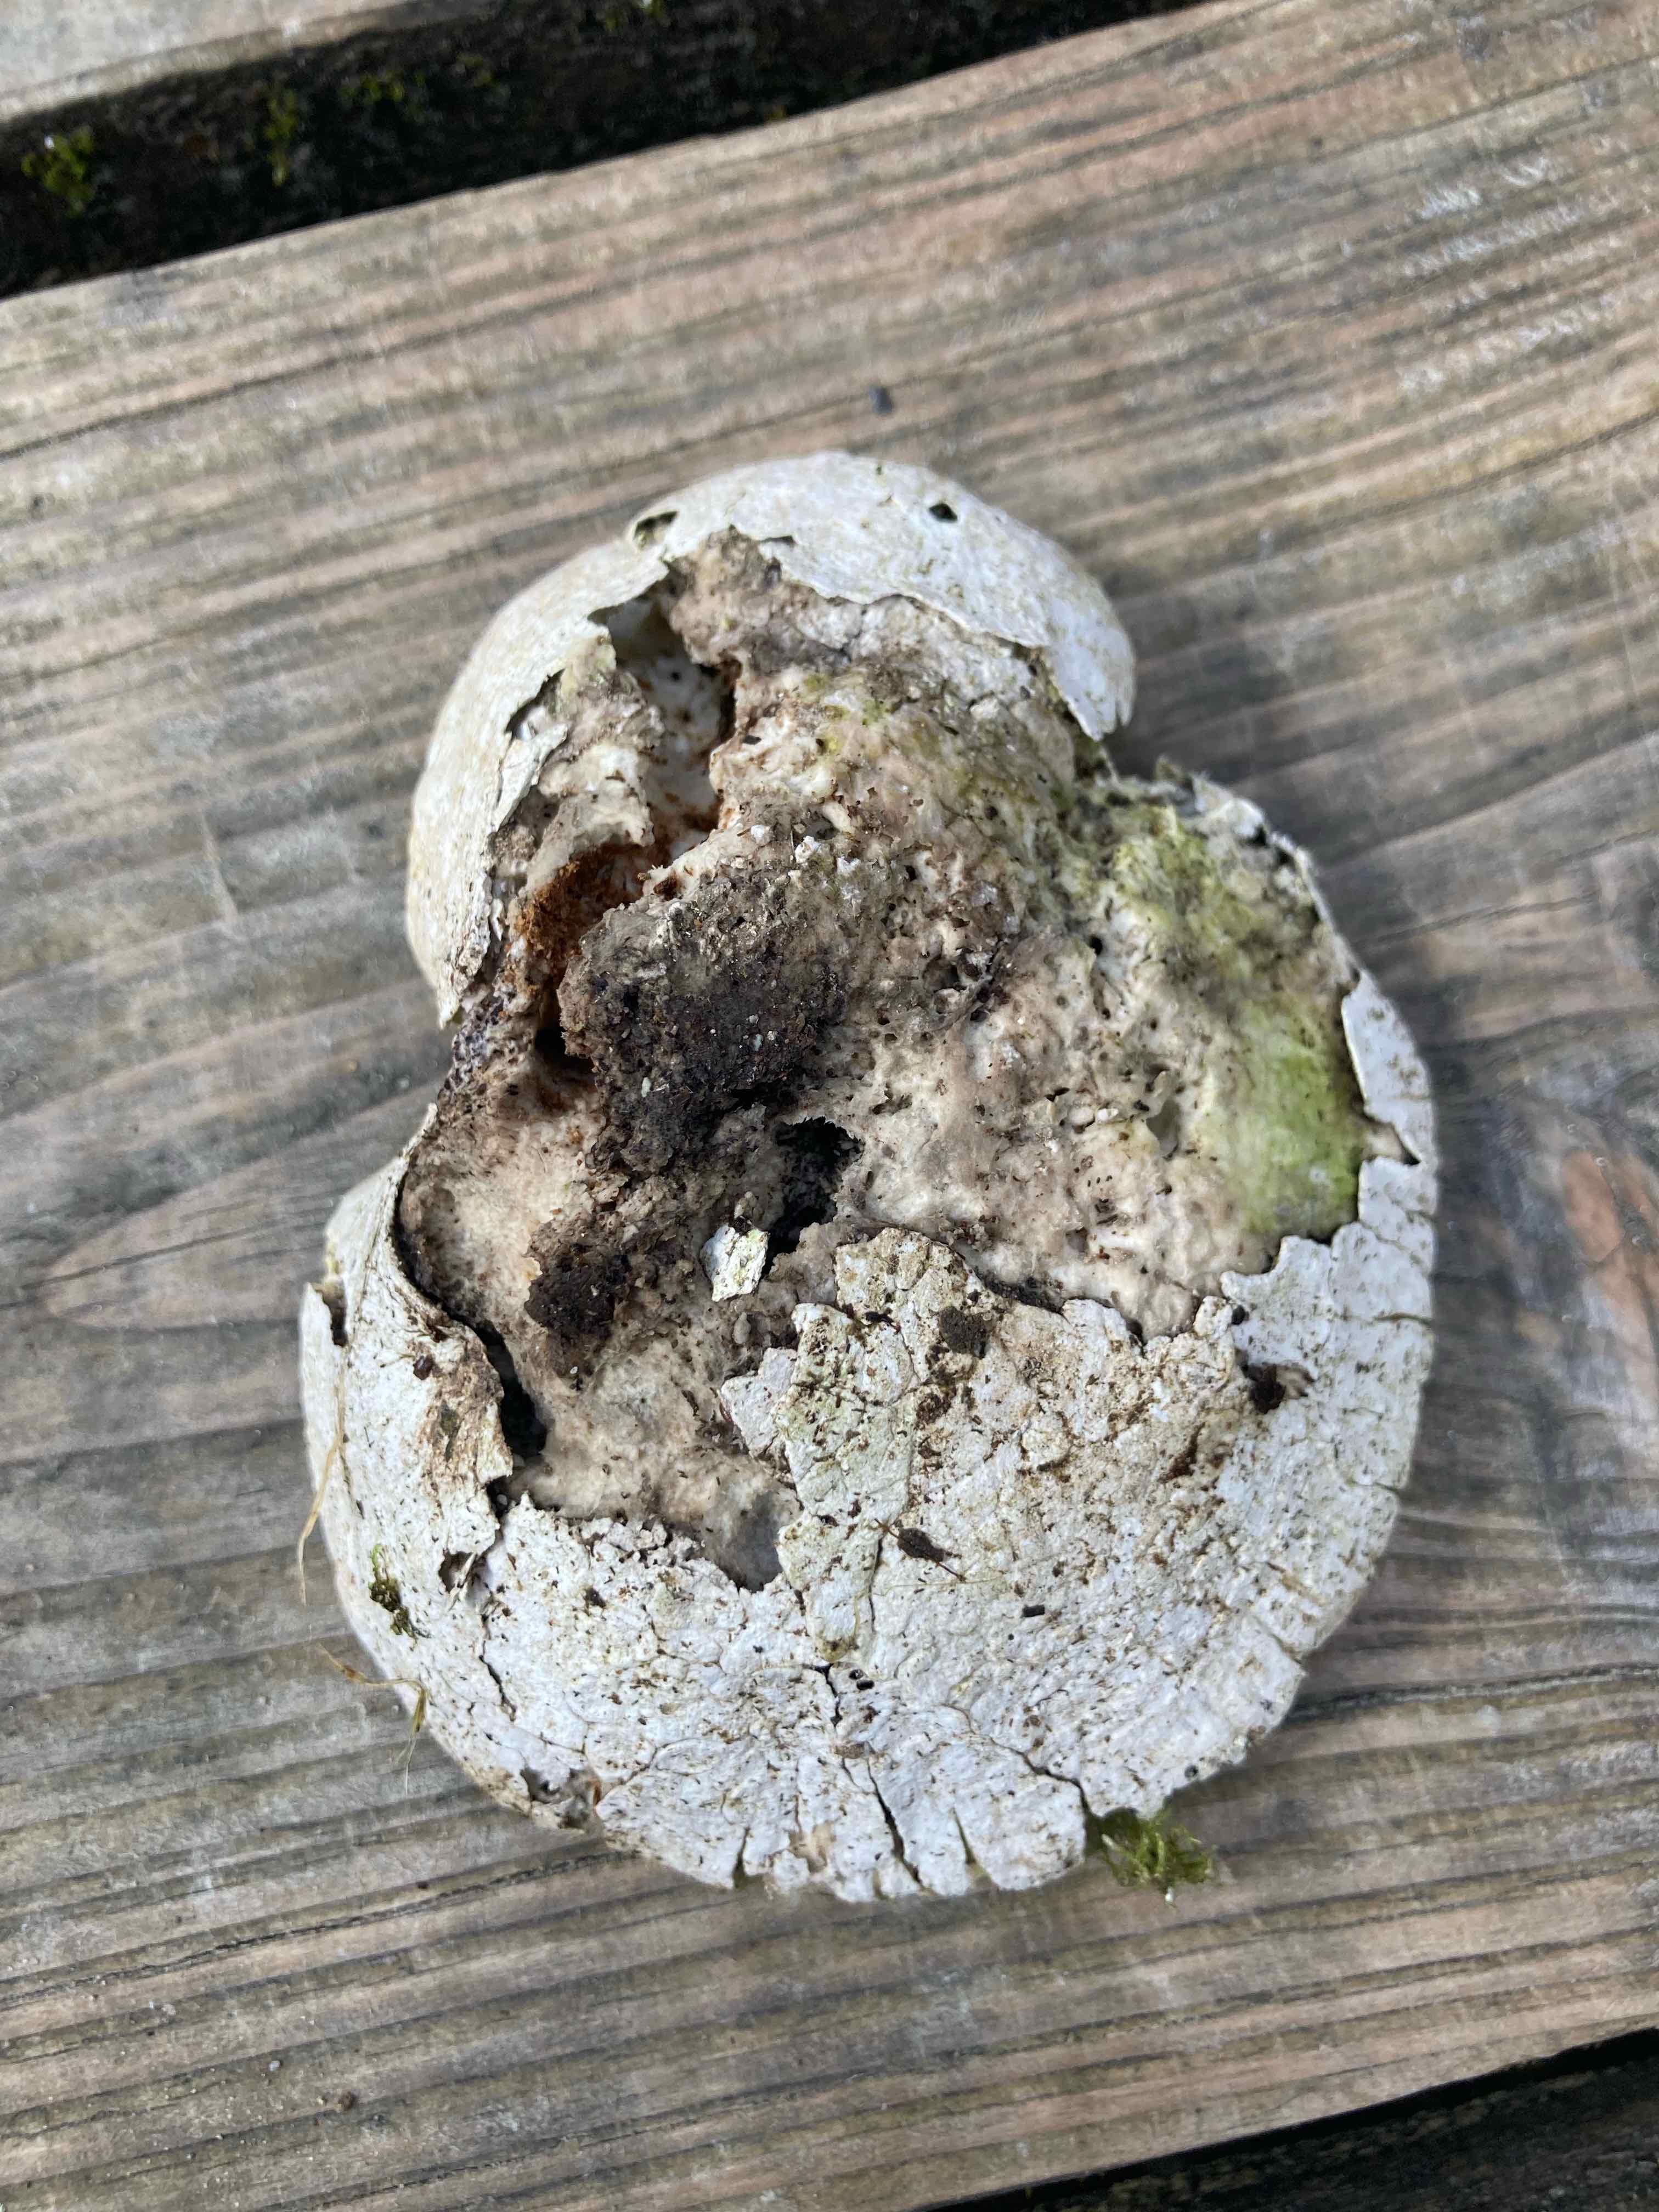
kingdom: Fungi
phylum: Basidiomycota
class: Agaricomycetes
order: Polyporales
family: Fomitopsidaceae
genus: Fomitopsis
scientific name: Fomitopsis betulina
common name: birkeporesvamp
